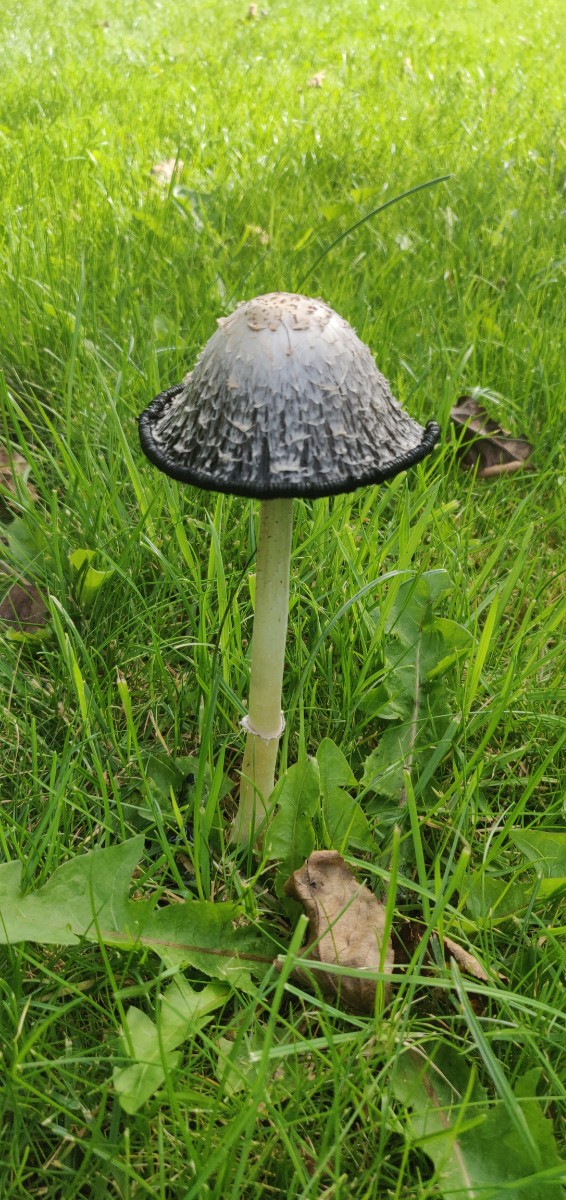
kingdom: Fungi
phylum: Basidiomycota
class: Agaricomycetes
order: Agaricales
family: Agaricaceae
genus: Coprinus
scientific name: Coprinus comatus
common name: stor parykhat
